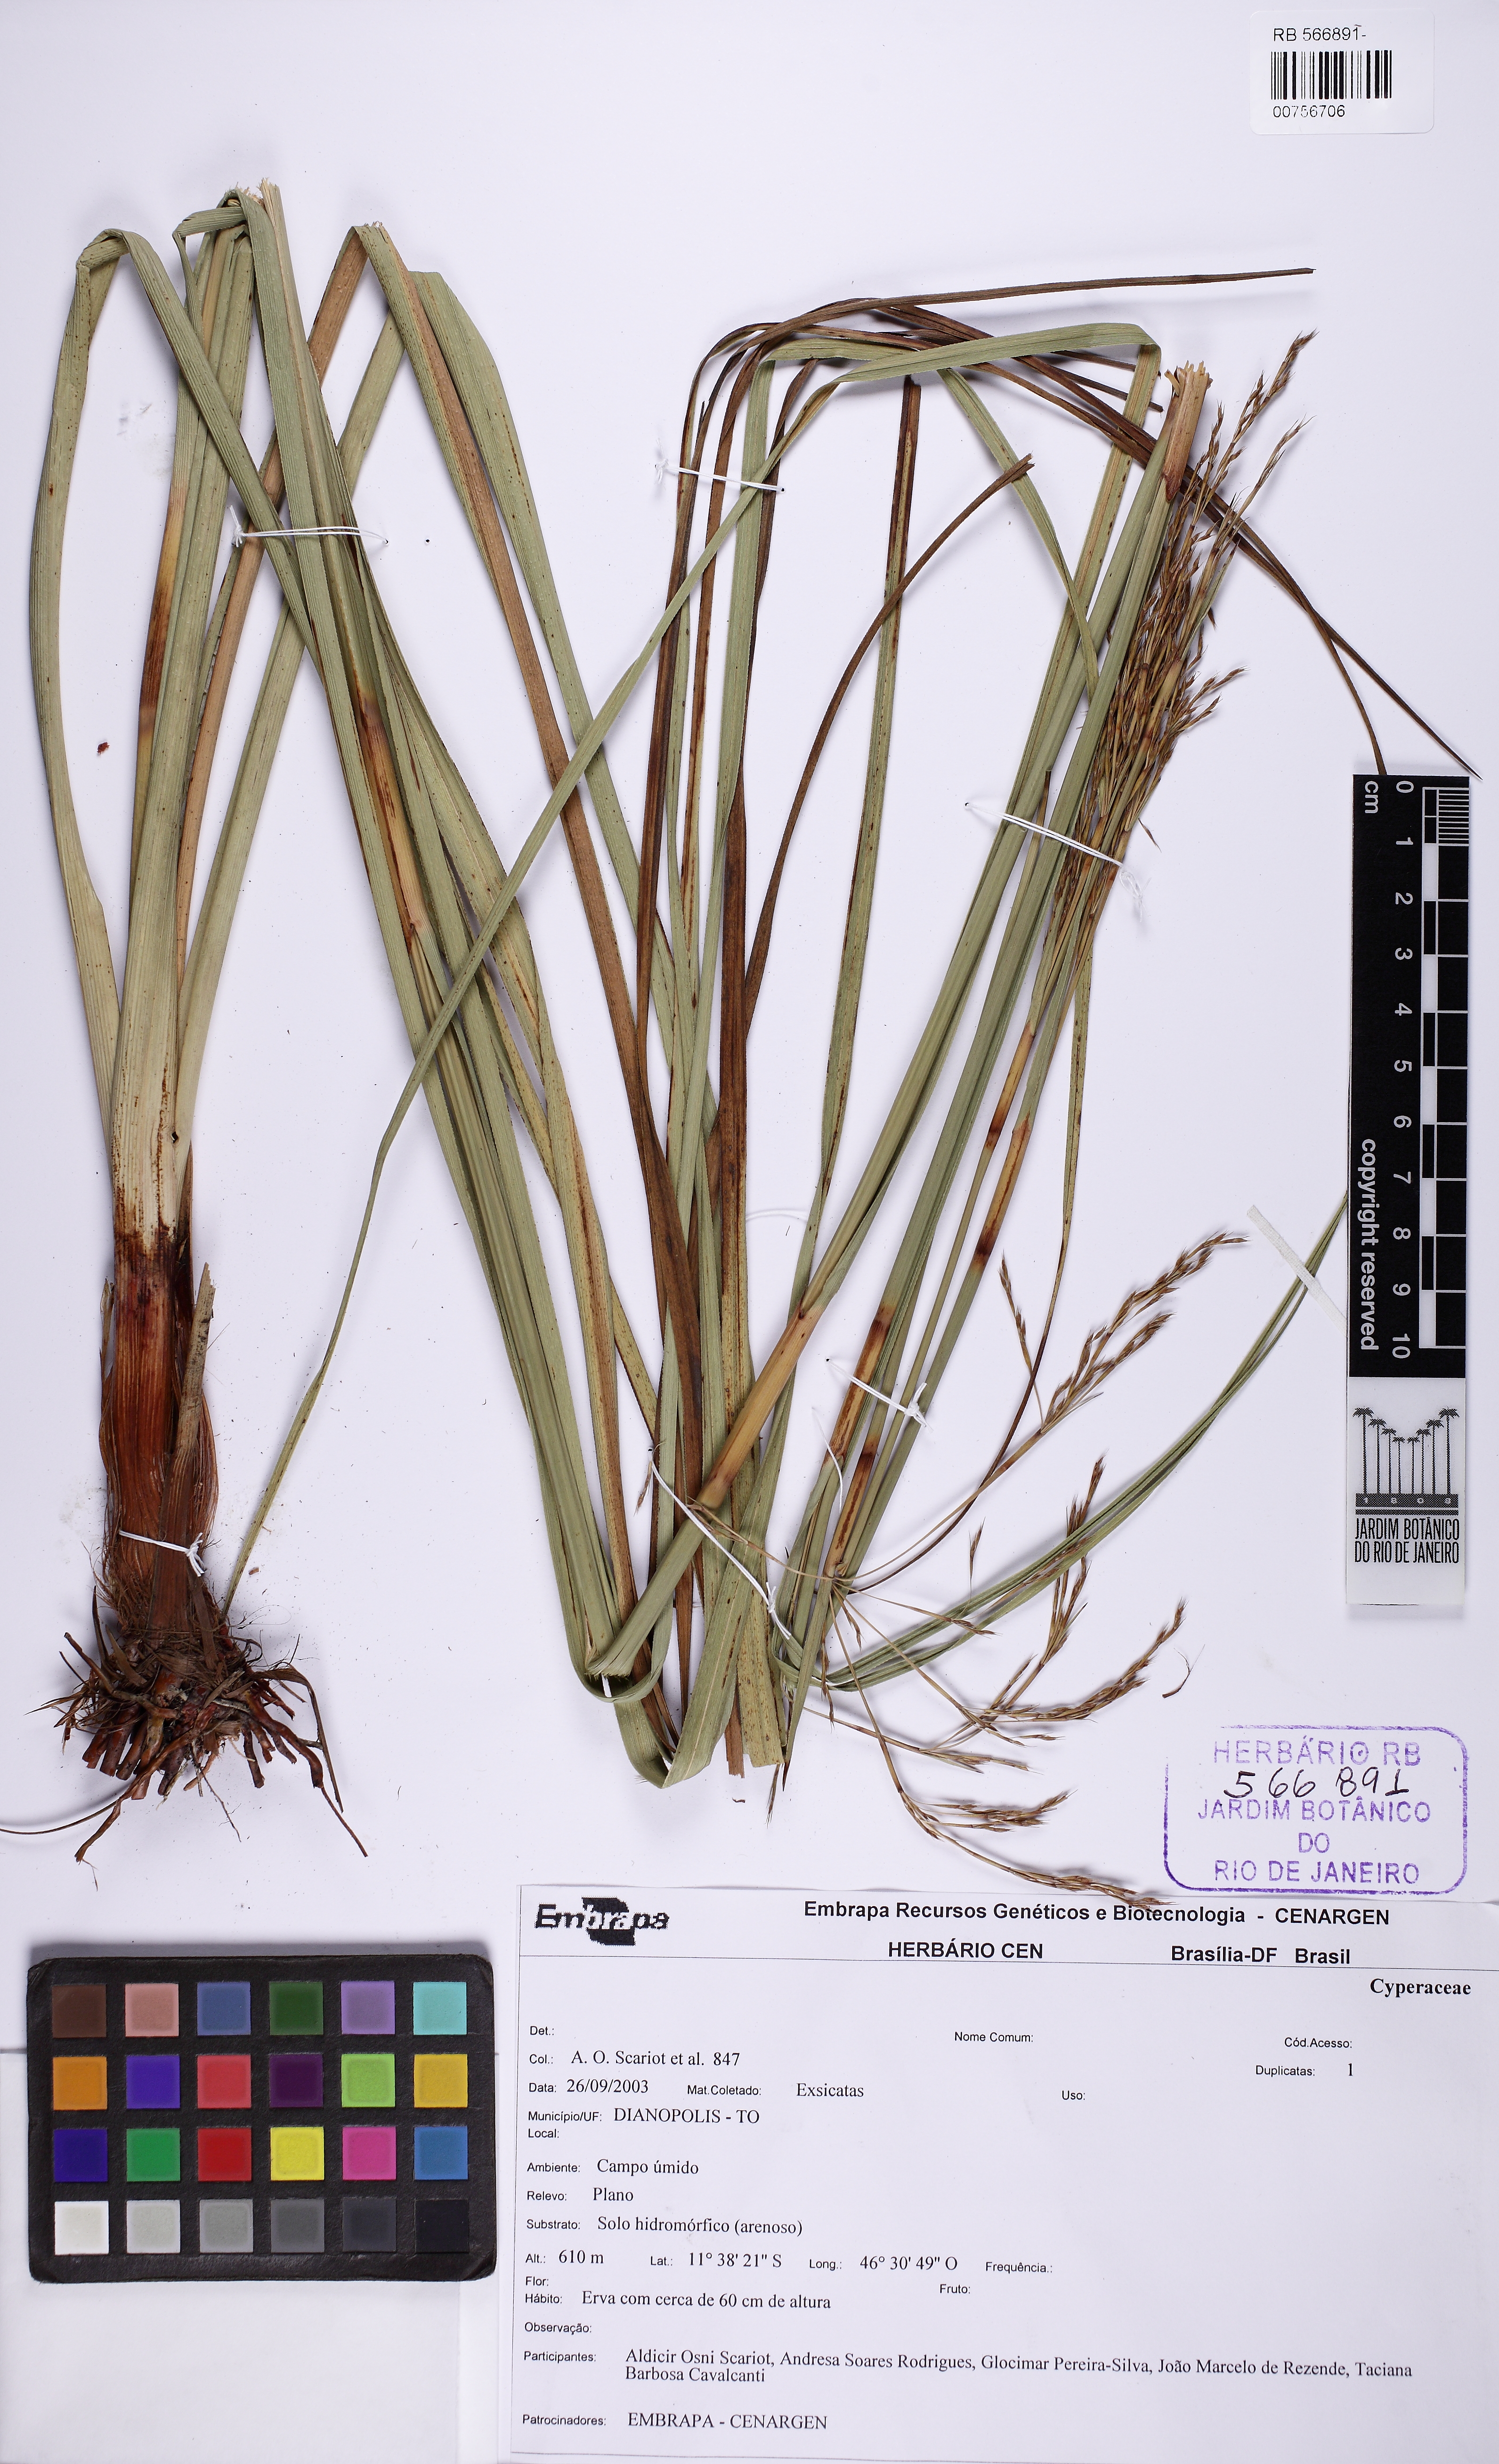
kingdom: Plantae
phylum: Tracheophyta
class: Liliopsida
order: Poales
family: Cyperaceae
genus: Lagenocarpus
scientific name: Lagenocarpus rigidus
